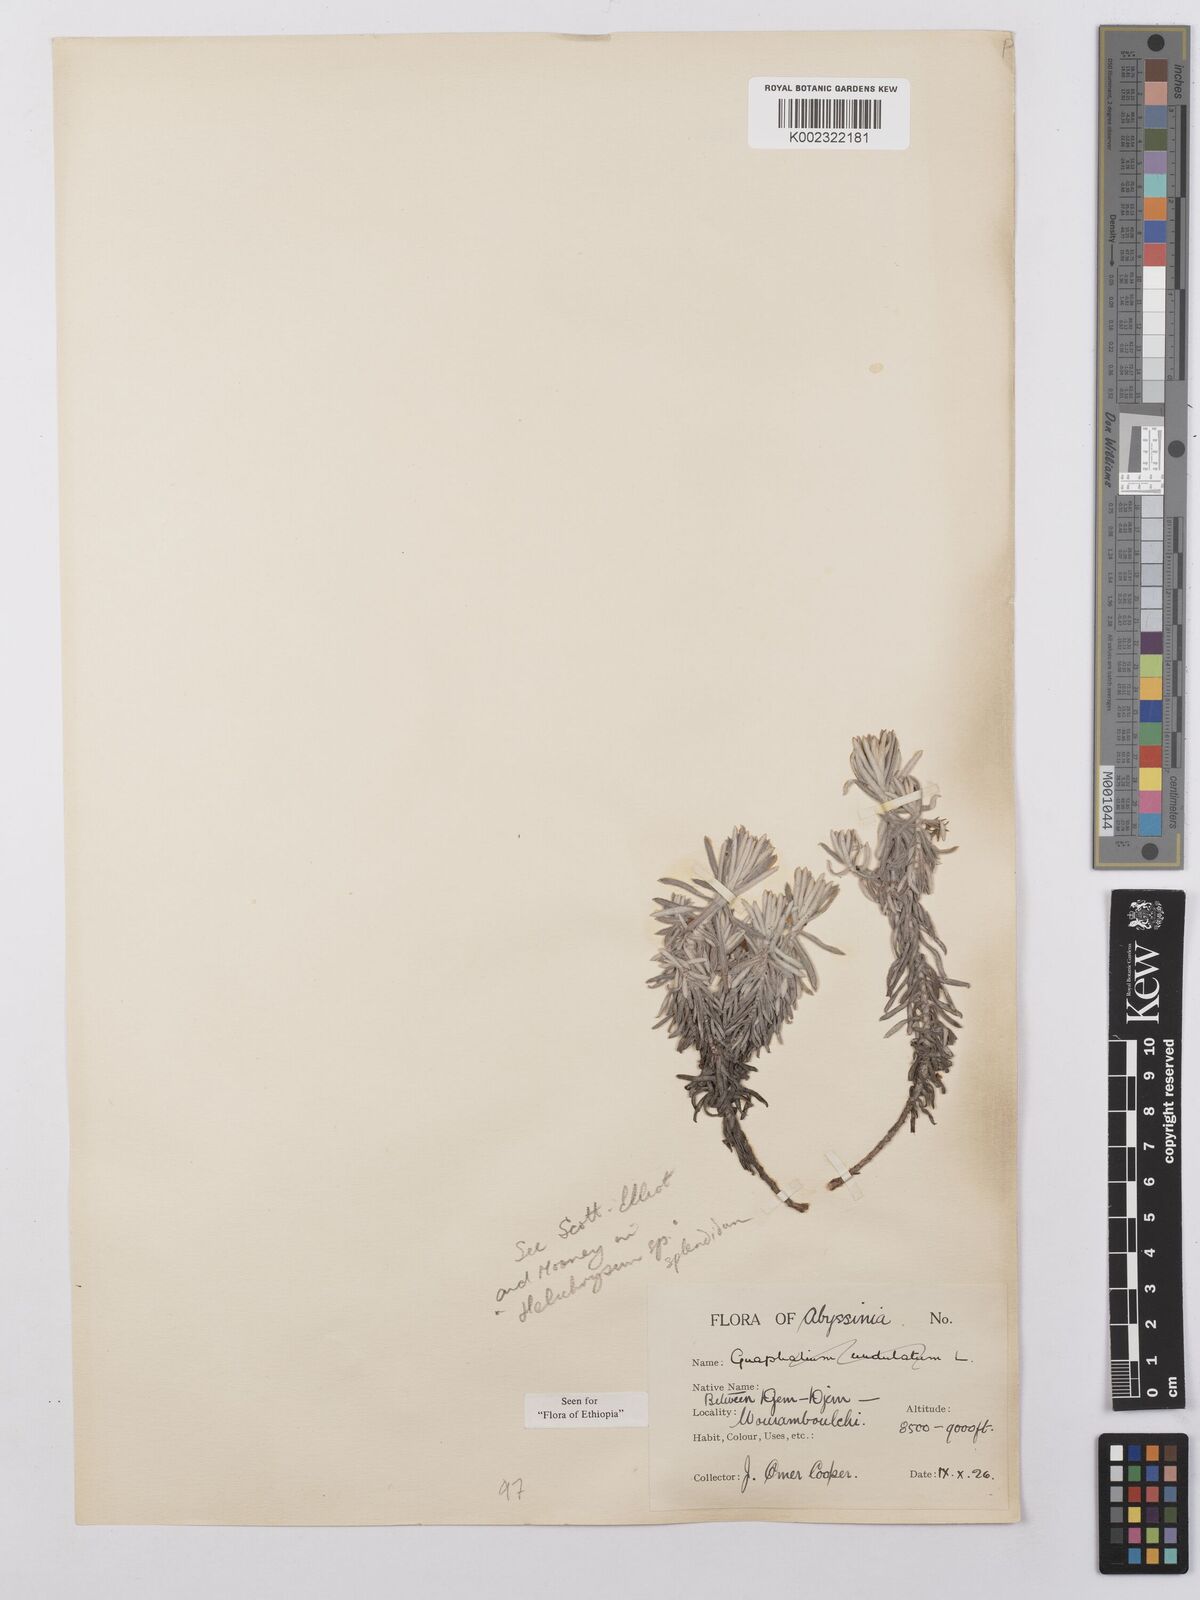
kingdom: Plantae
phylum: Tracheophyta
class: Magnoliopsida
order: Asterales
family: Asteraceae
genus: Helichrysum
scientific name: Helichrysum splendidum
